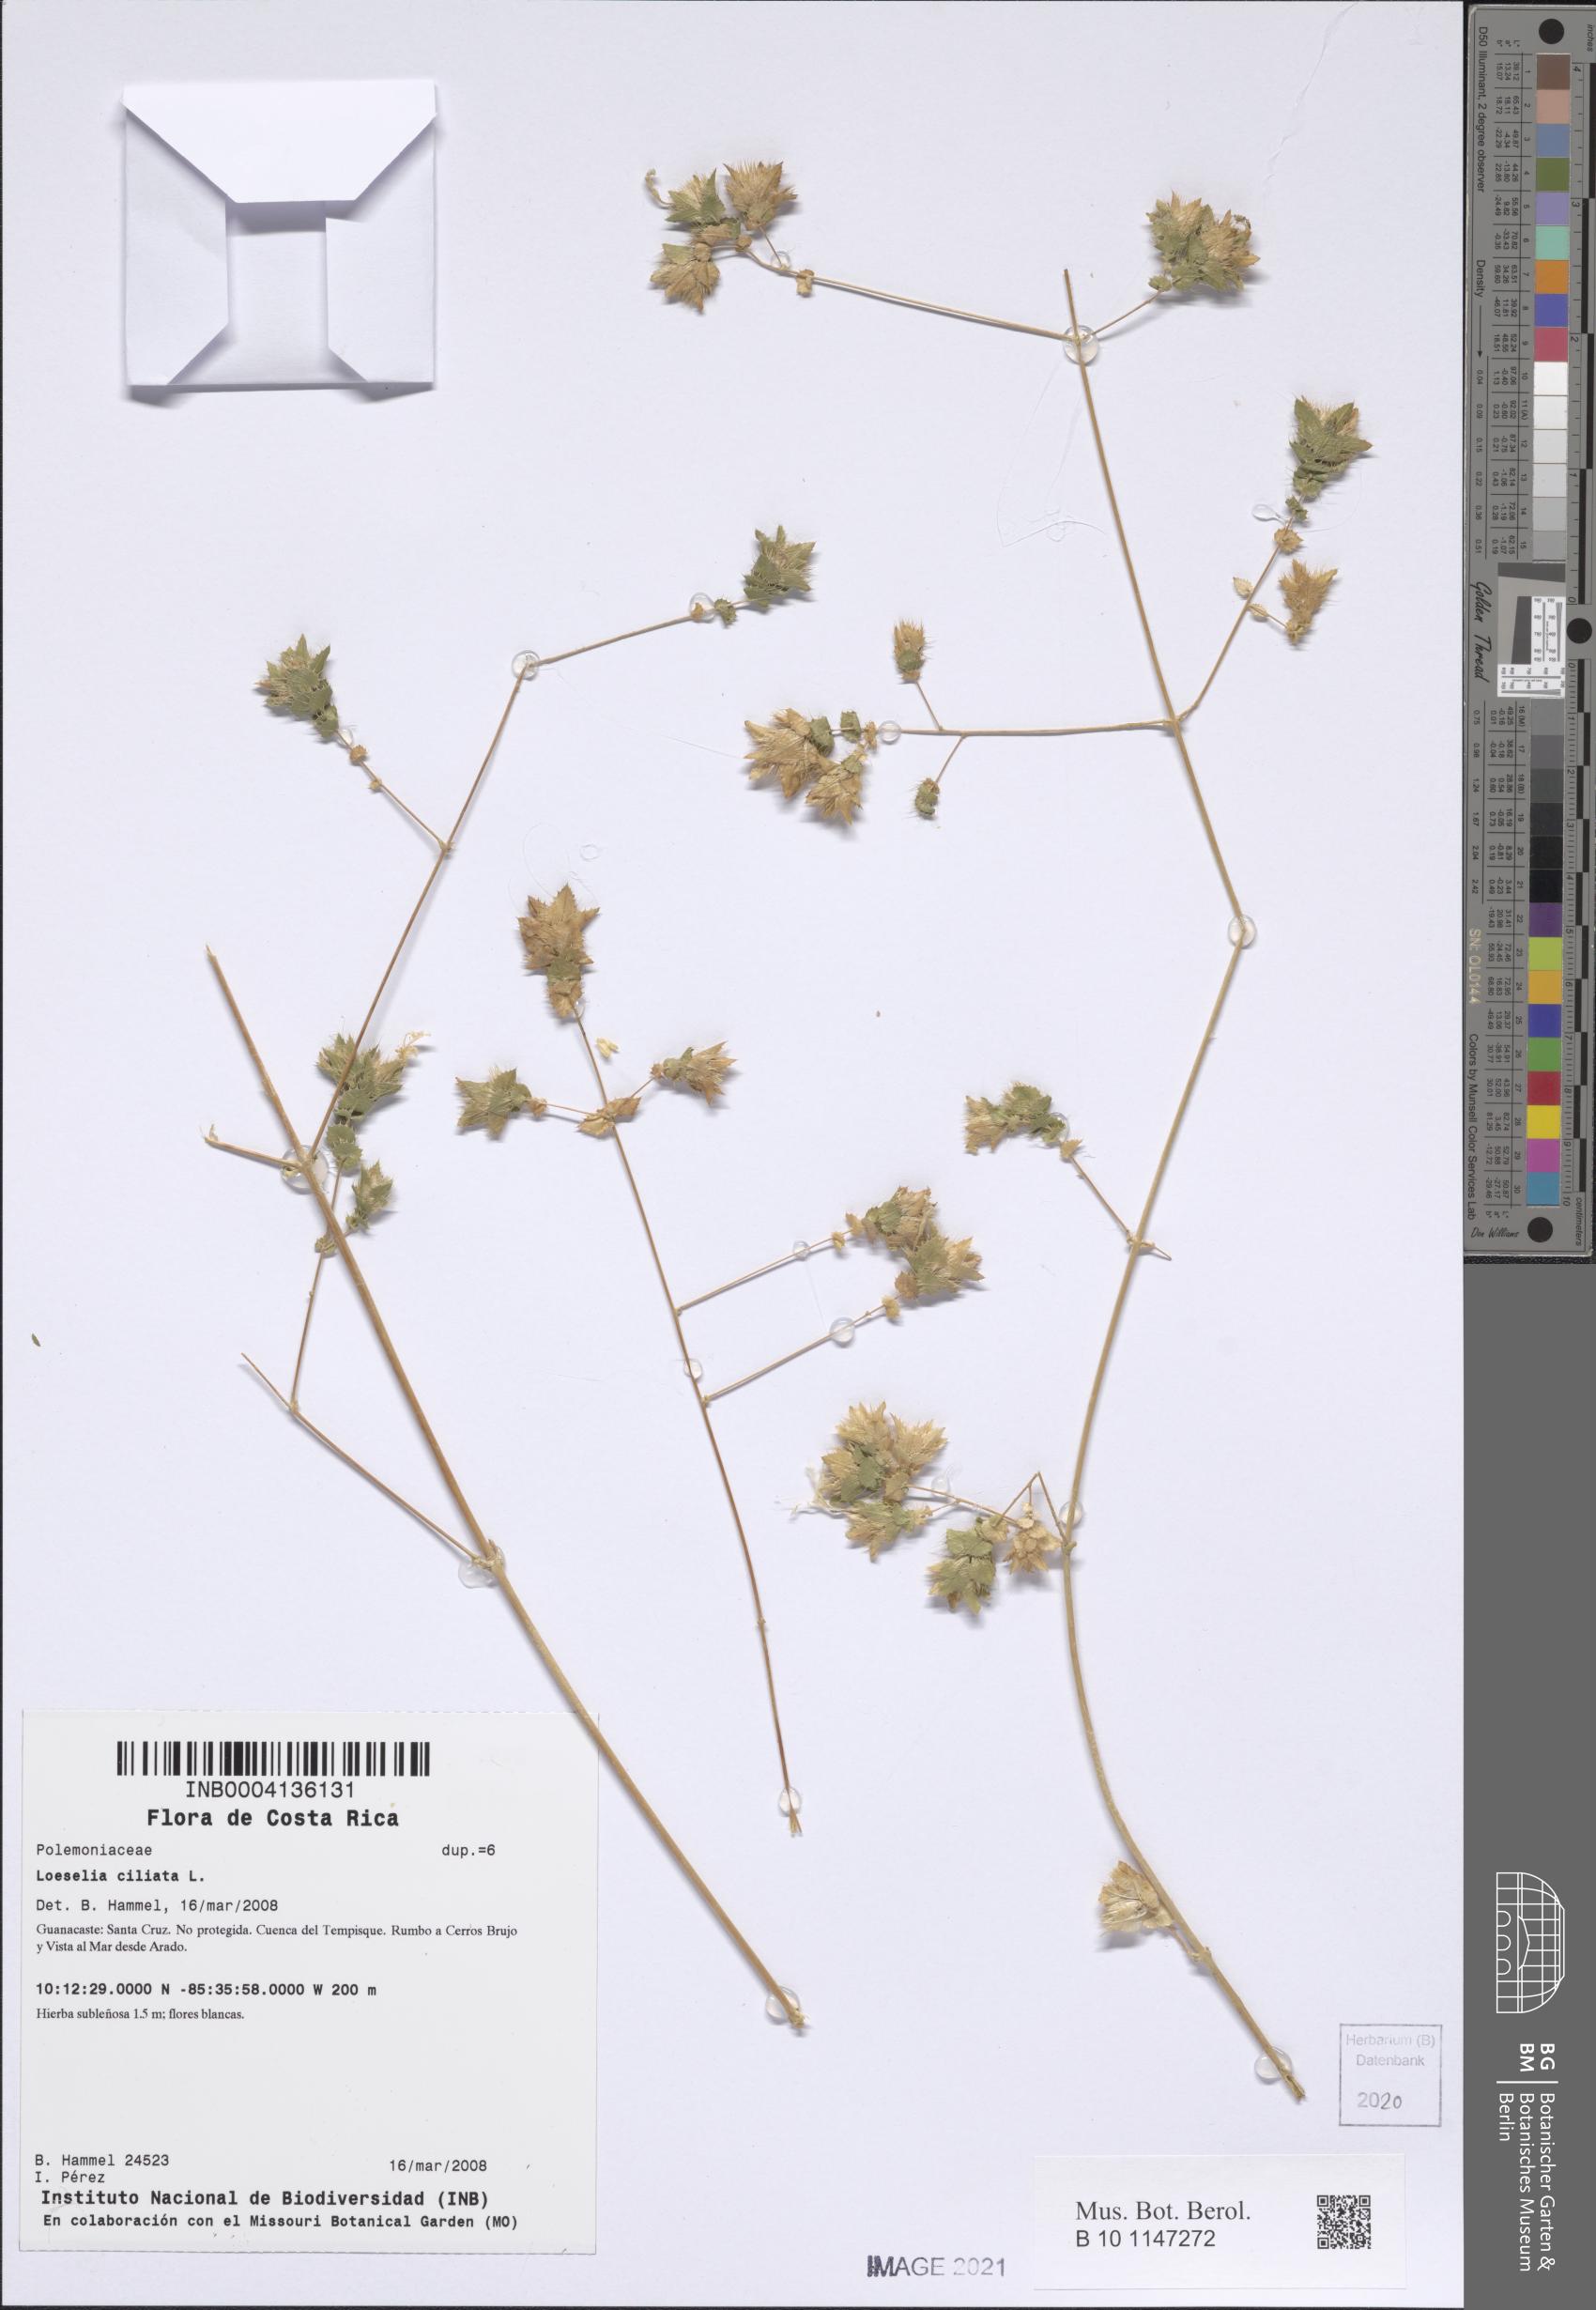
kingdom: Plantae
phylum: Tracheophyta
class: Magnoliopsida
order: Ericales
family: Polemoniaceae
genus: Loeselia
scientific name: Loeselia ciliata
